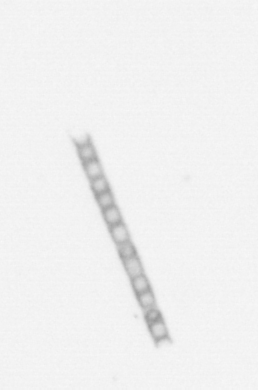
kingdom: Chromista
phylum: Ochrophyta
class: Bacillariophyceae
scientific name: Bacillariophyceae
